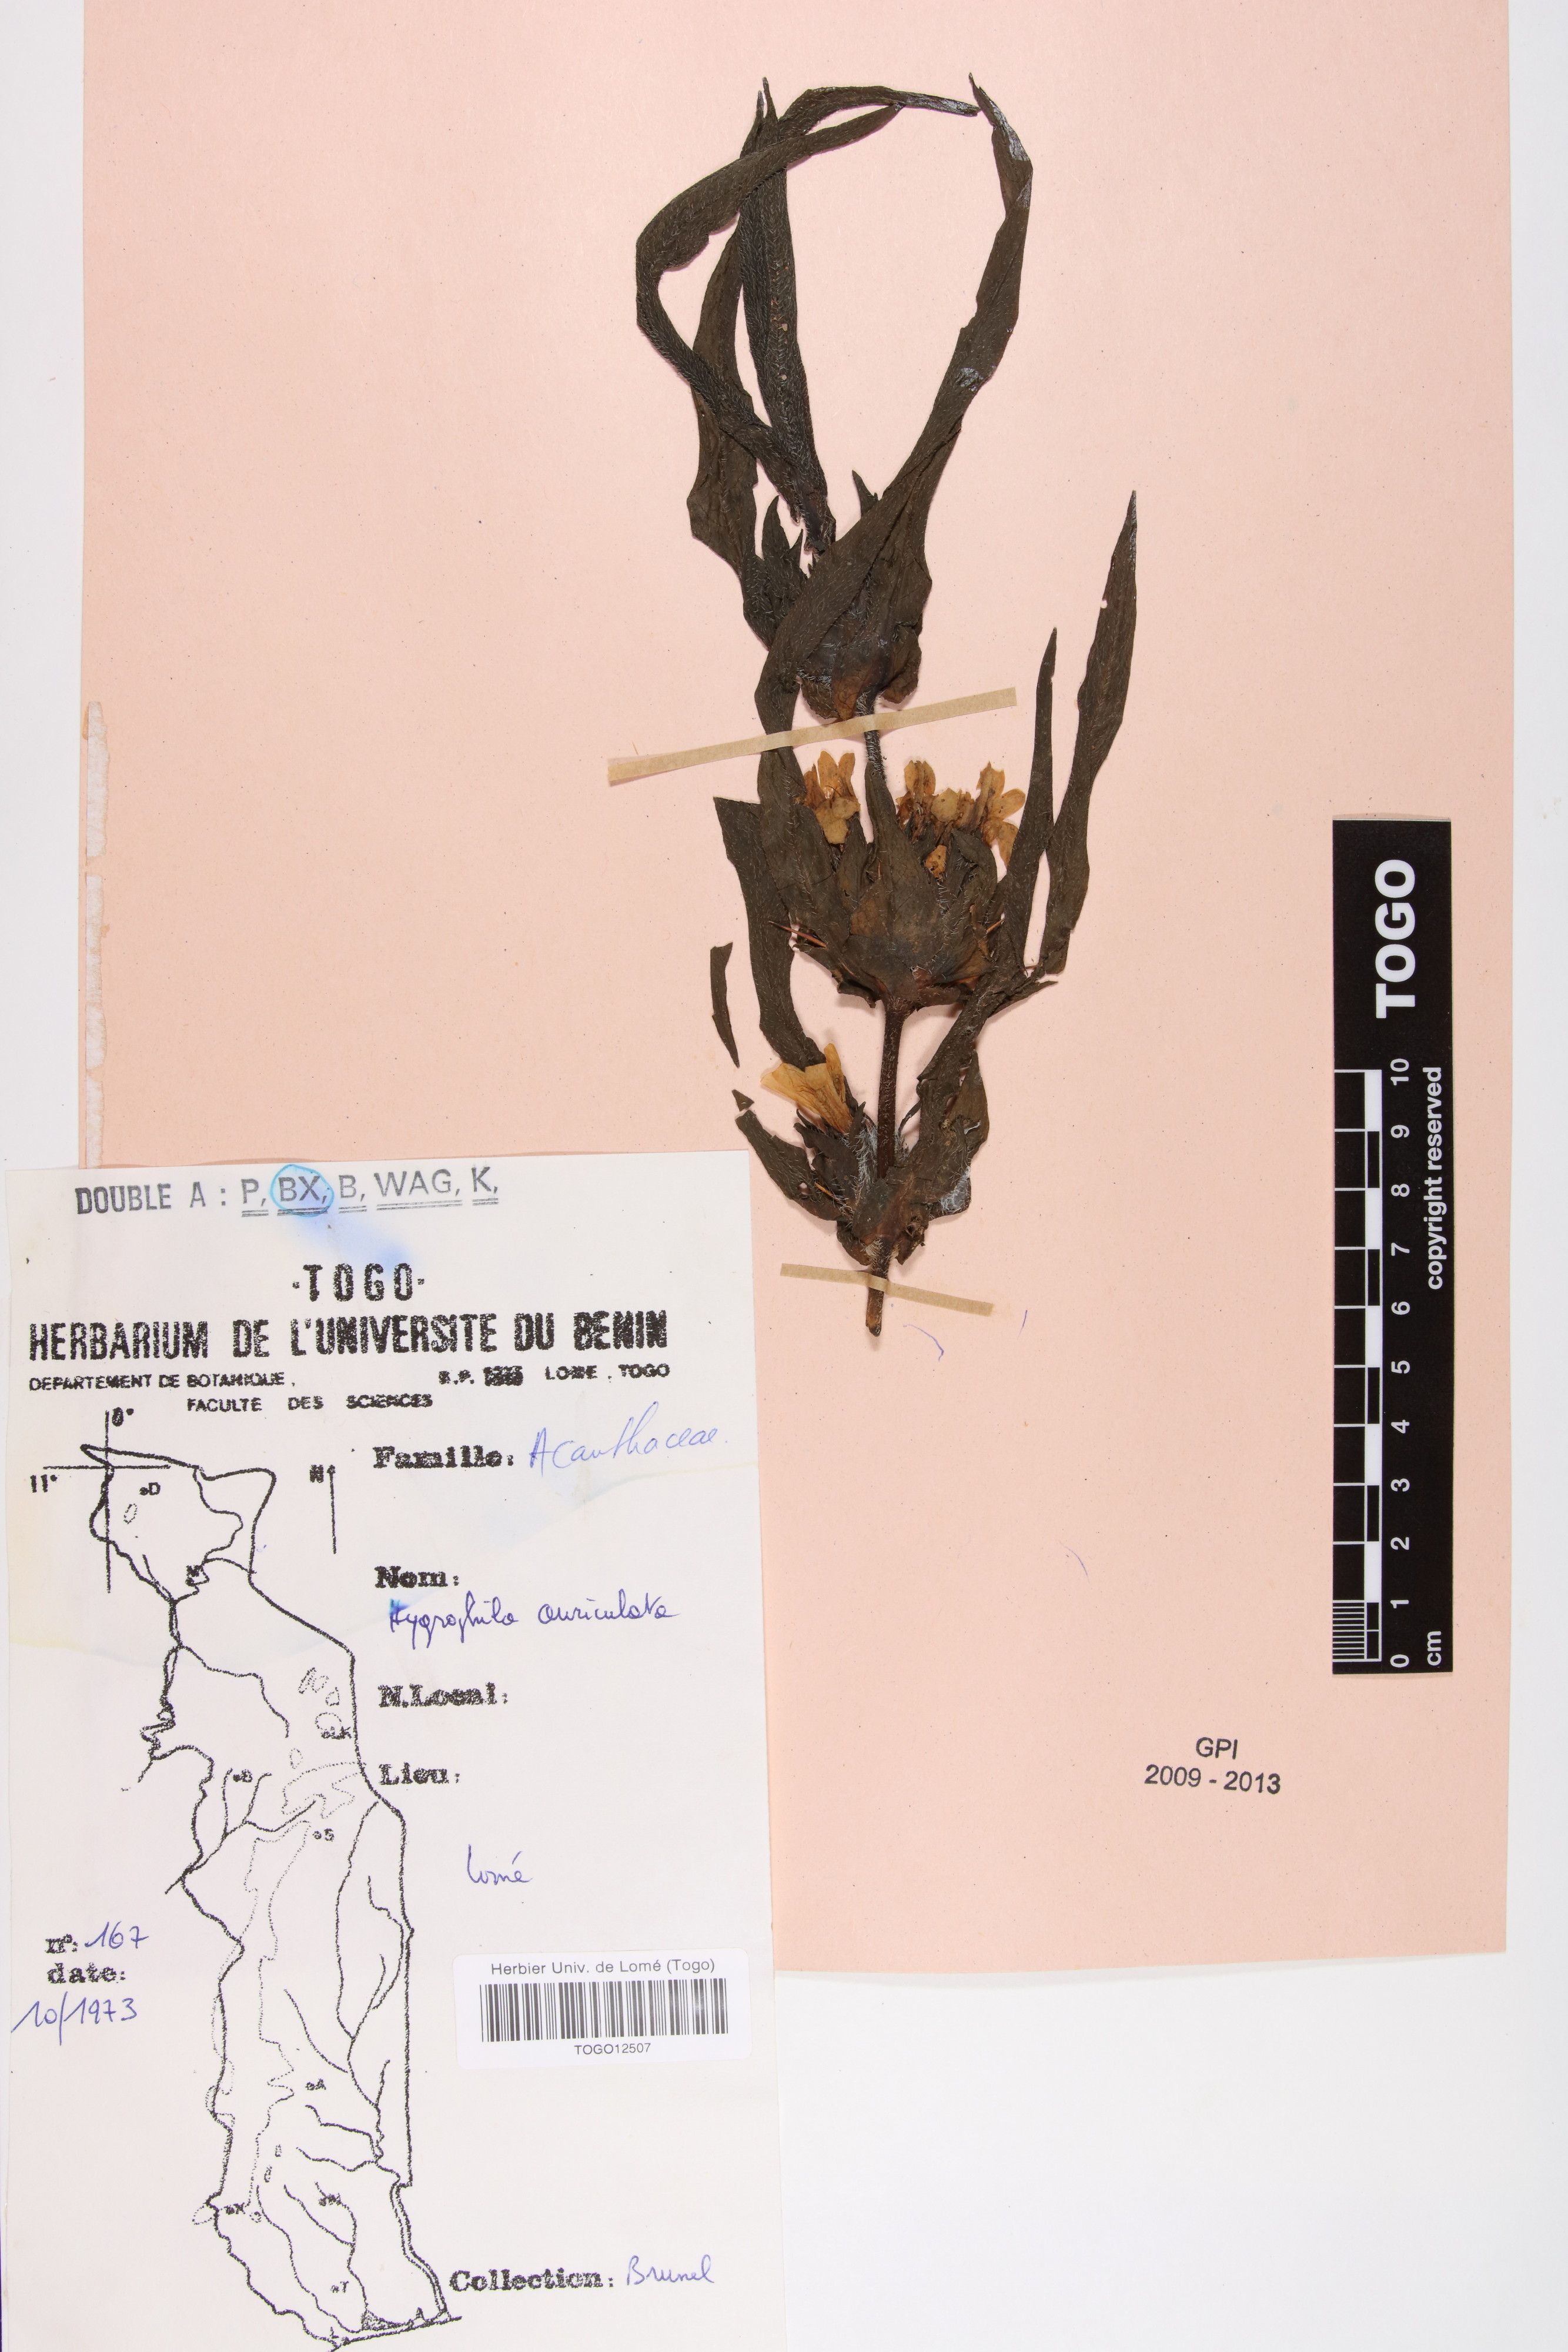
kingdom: Plantae
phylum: Tracheophyta
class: Magnoliopsida
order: Lamiales
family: Acanthaceae
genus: Hygrophila
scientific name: Hygrophila auriculata
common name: Hygrophila
